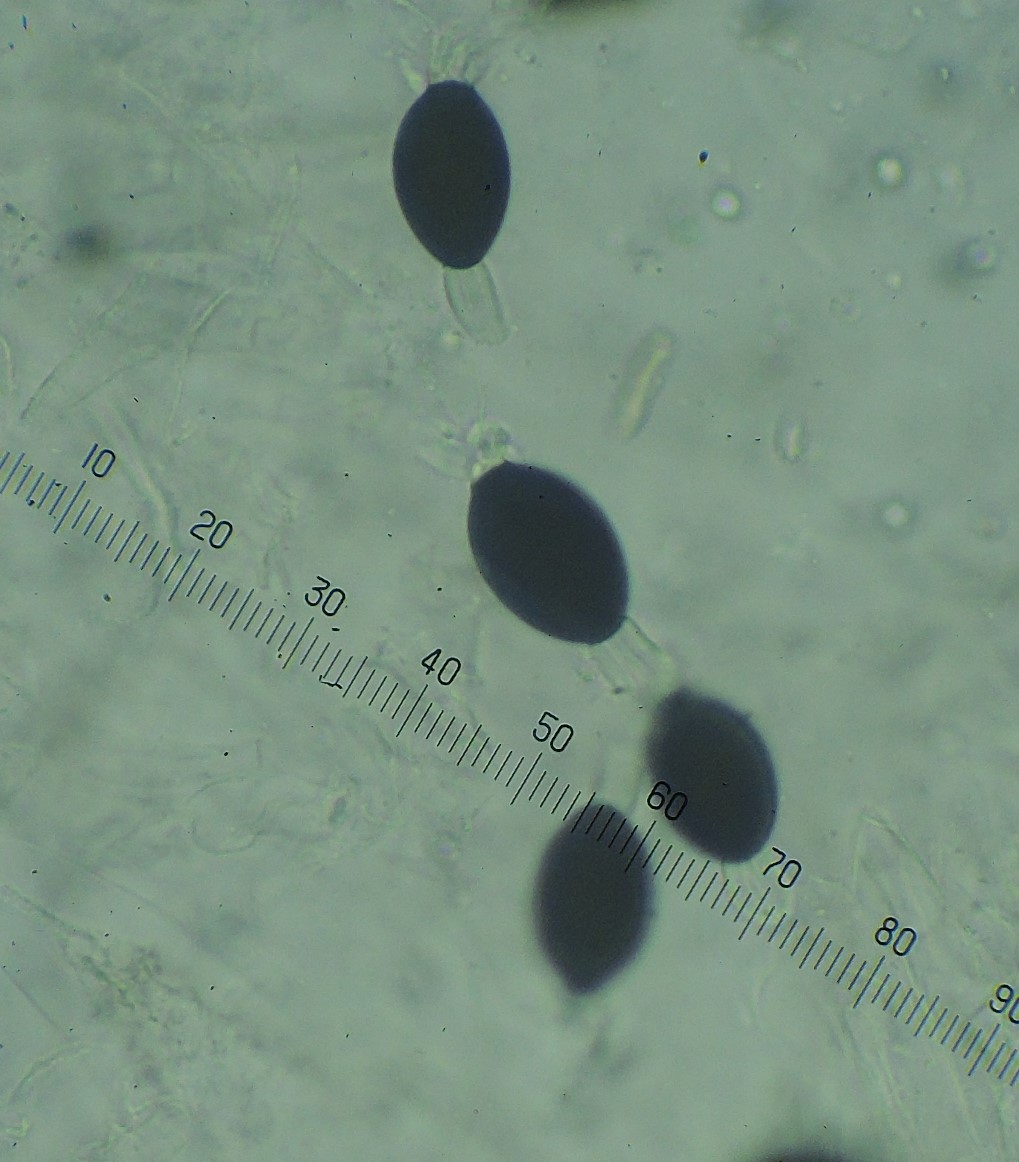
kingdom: Fungi
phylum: Ascomycota
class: Sordariomycetes
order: Sordariales
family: Naviculisporaceae
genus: Rhypophila
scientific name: Rhypophila pleiospora
